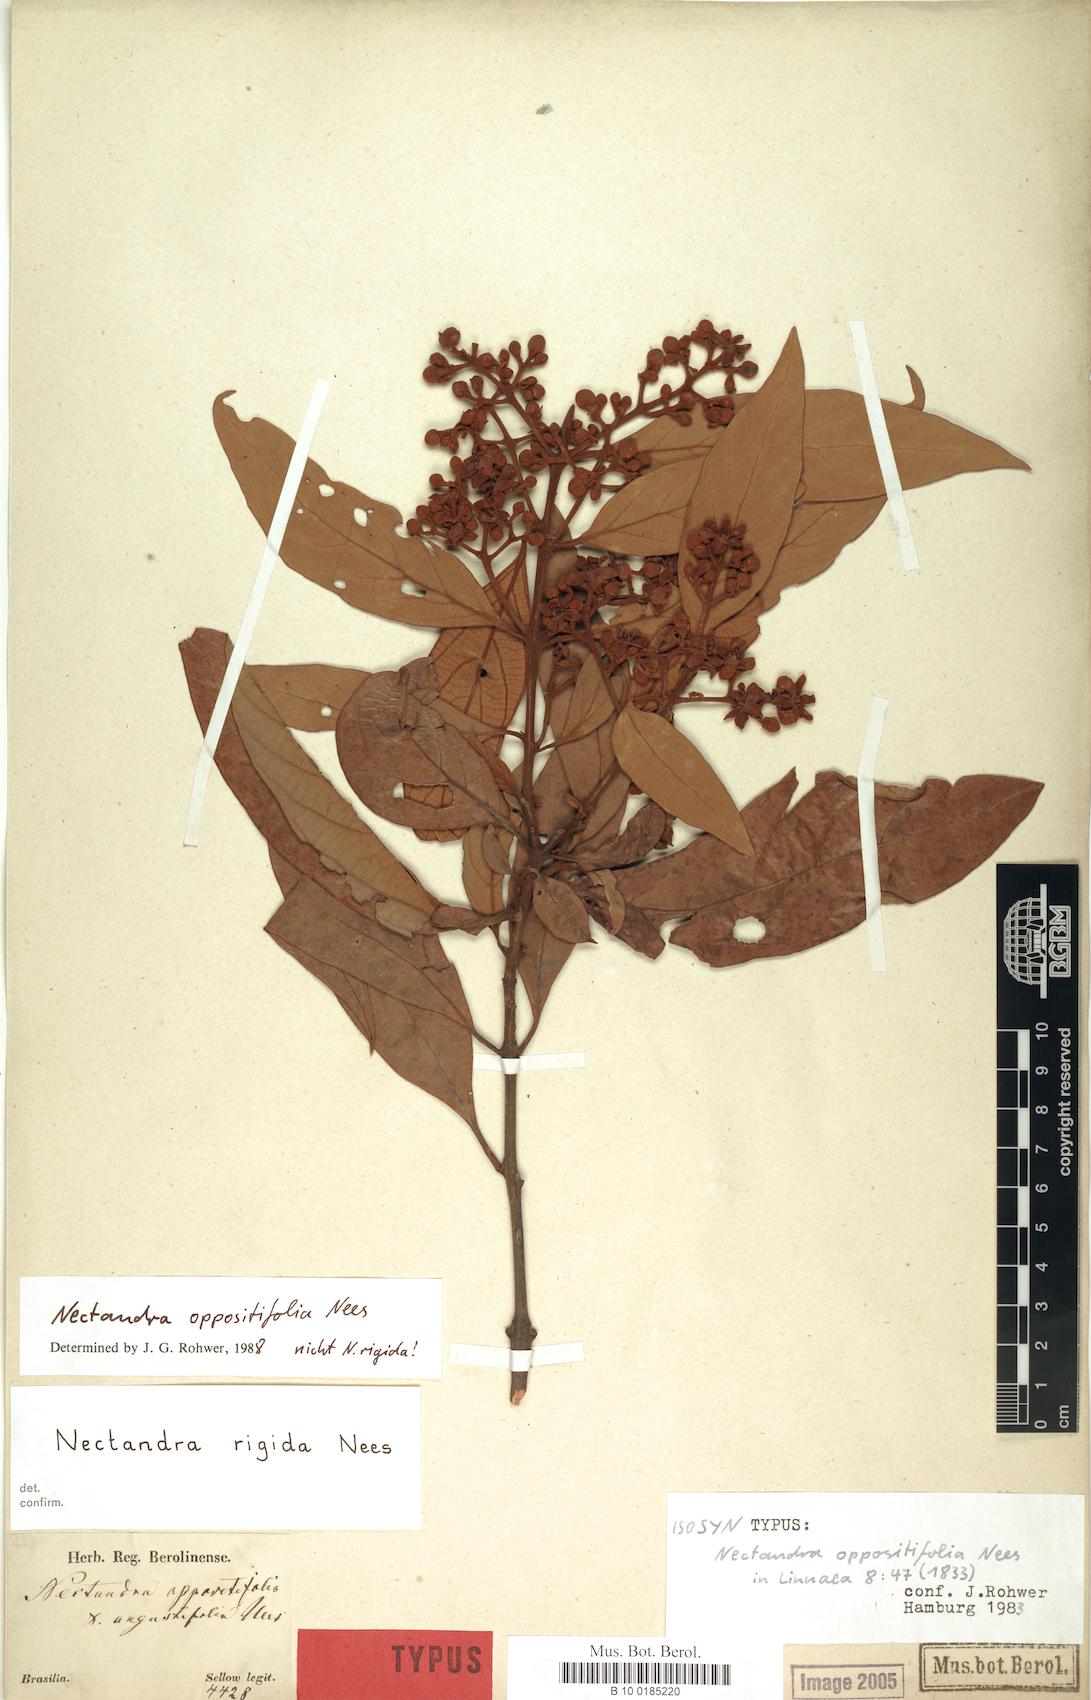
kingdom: Plantae
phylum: Tracheophyta
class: Magnoliopsida
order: Laurales
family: Lauraceae
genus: Nectandra
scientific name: Nectandra oppositifolia
